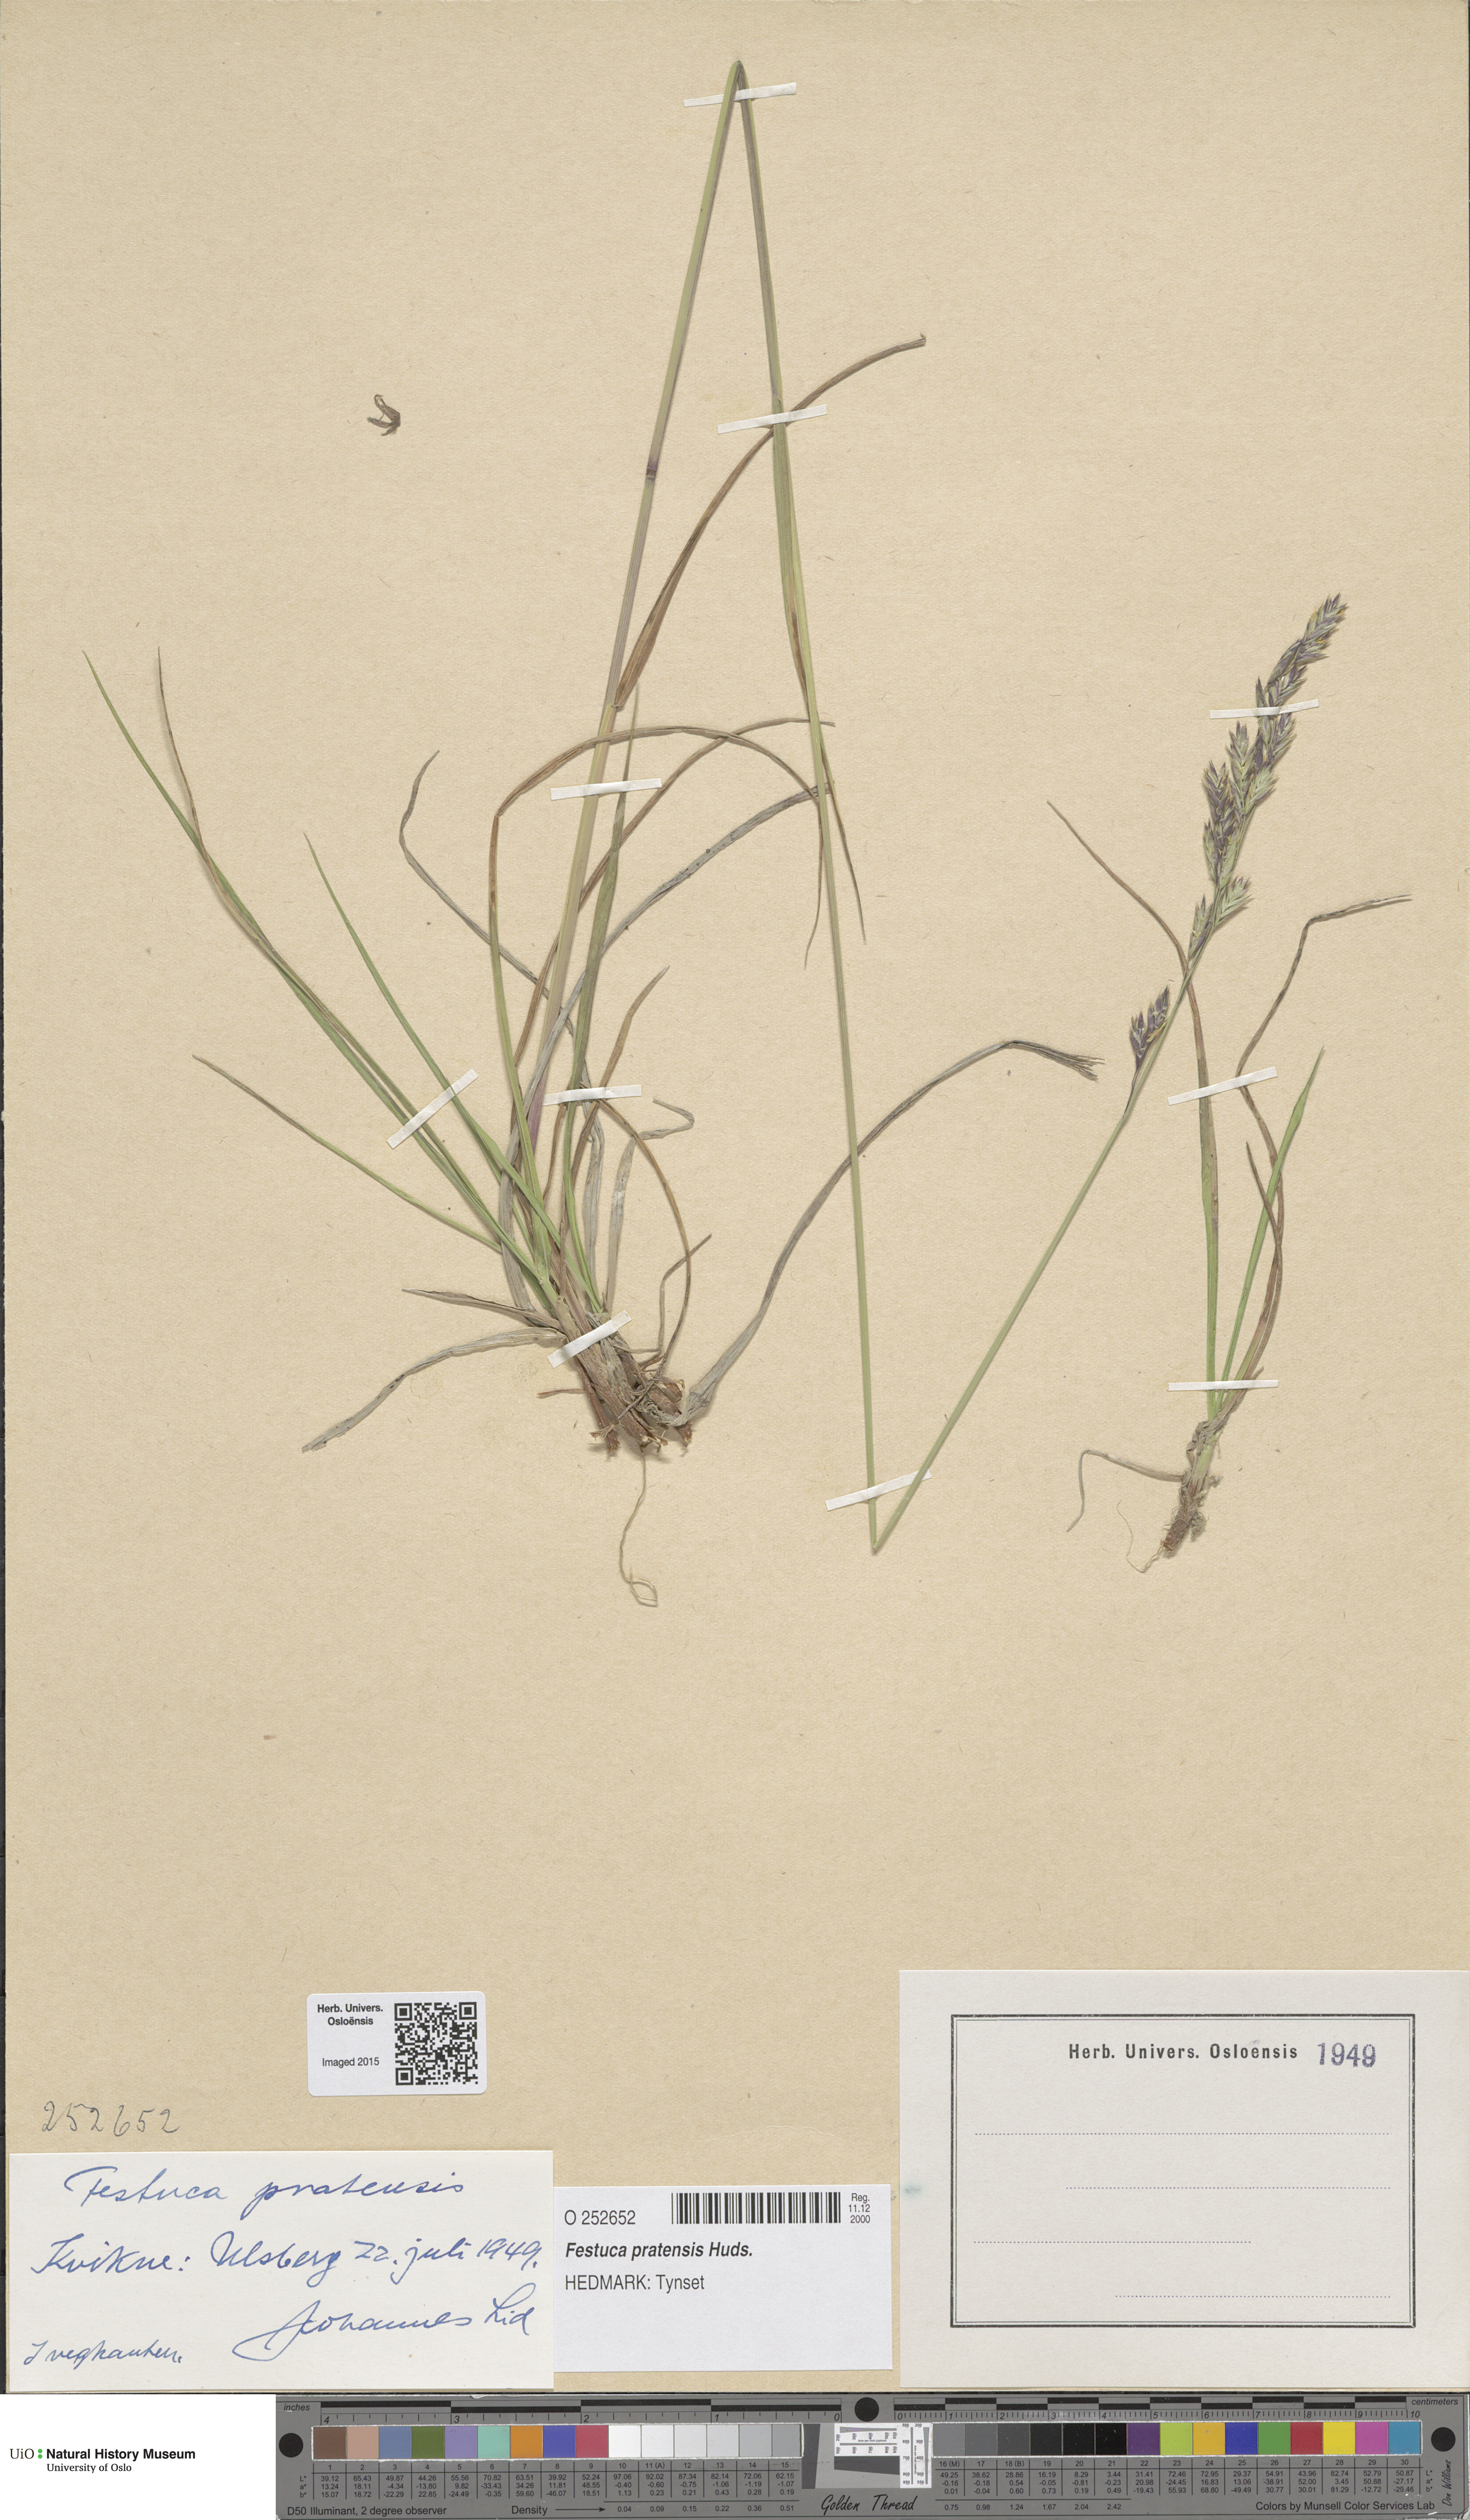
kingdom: Plantae
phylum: Tracheophyta
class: Liliopsida
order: Poales
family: Poaceae
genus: Lolium
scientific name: Lolium pratense
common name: Dover grass
